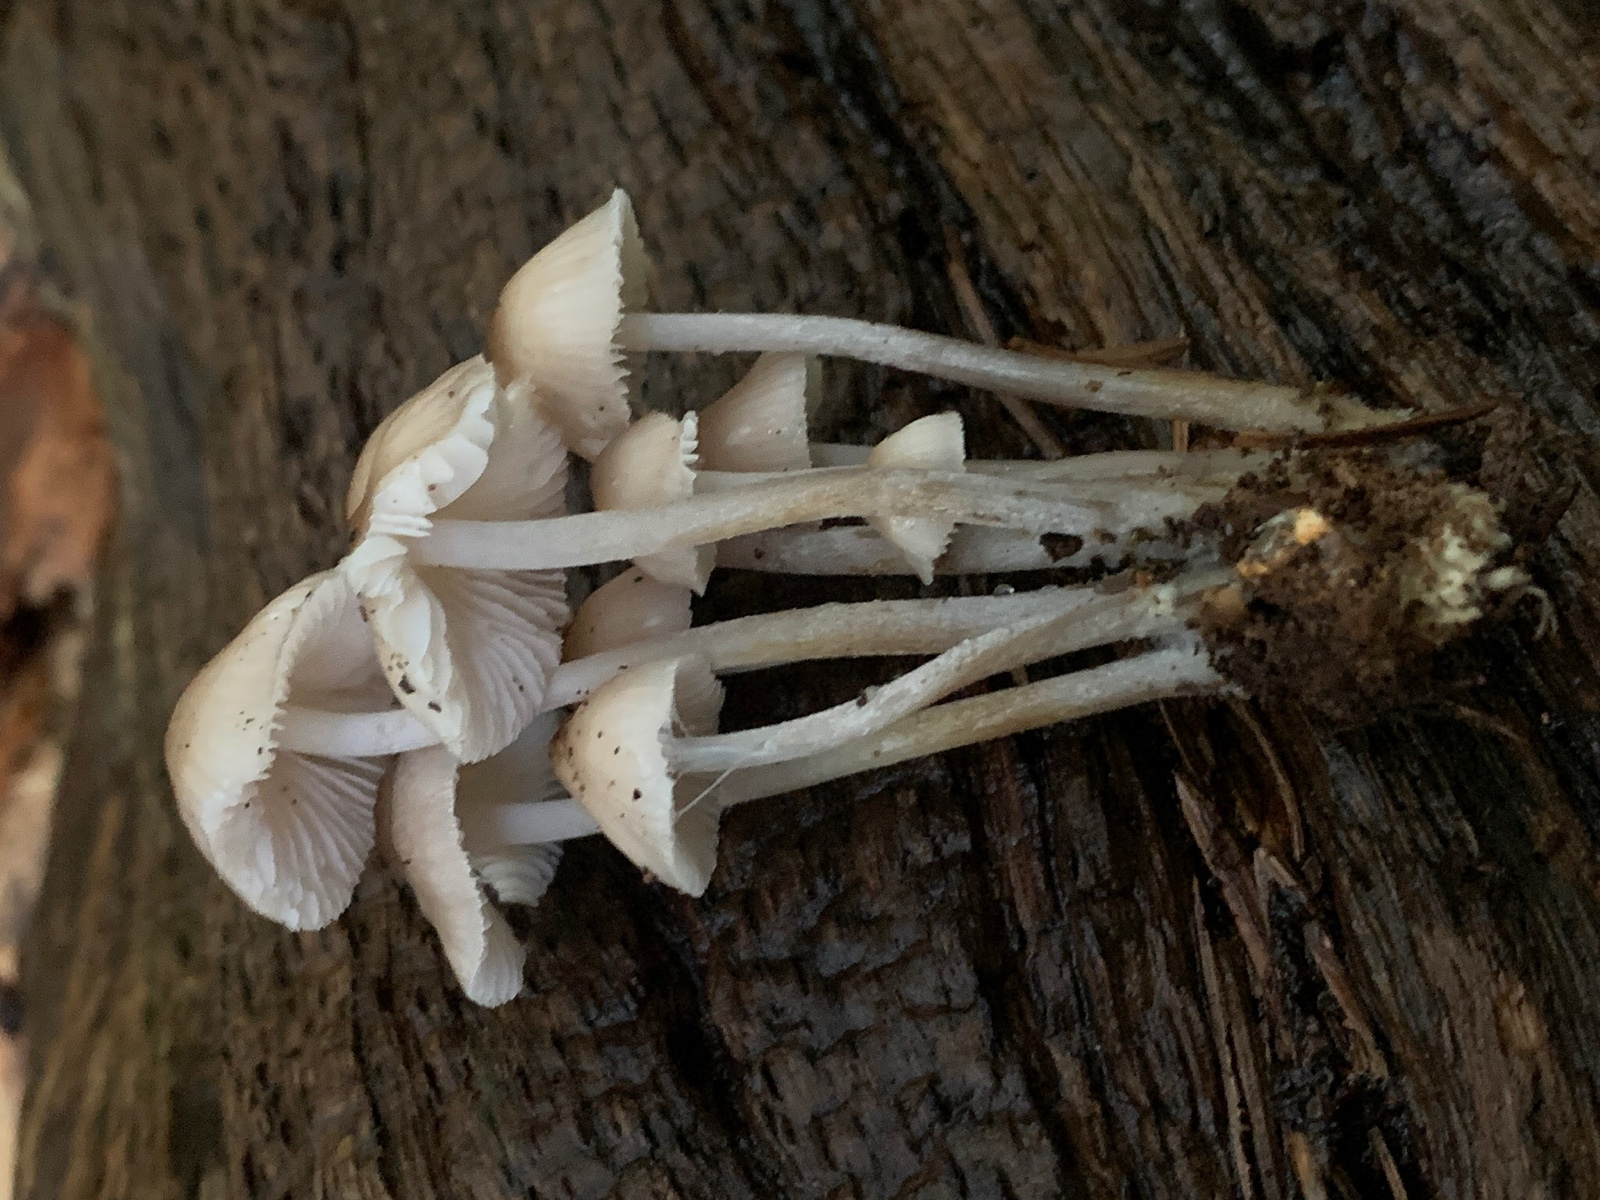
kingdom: Fungi
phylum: Basidiomycota
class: Agaricomycetes
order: Agaricales
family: Mycenaceae
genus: Mycena
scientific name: Mycena inclinata
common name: nikkende huesvamp
